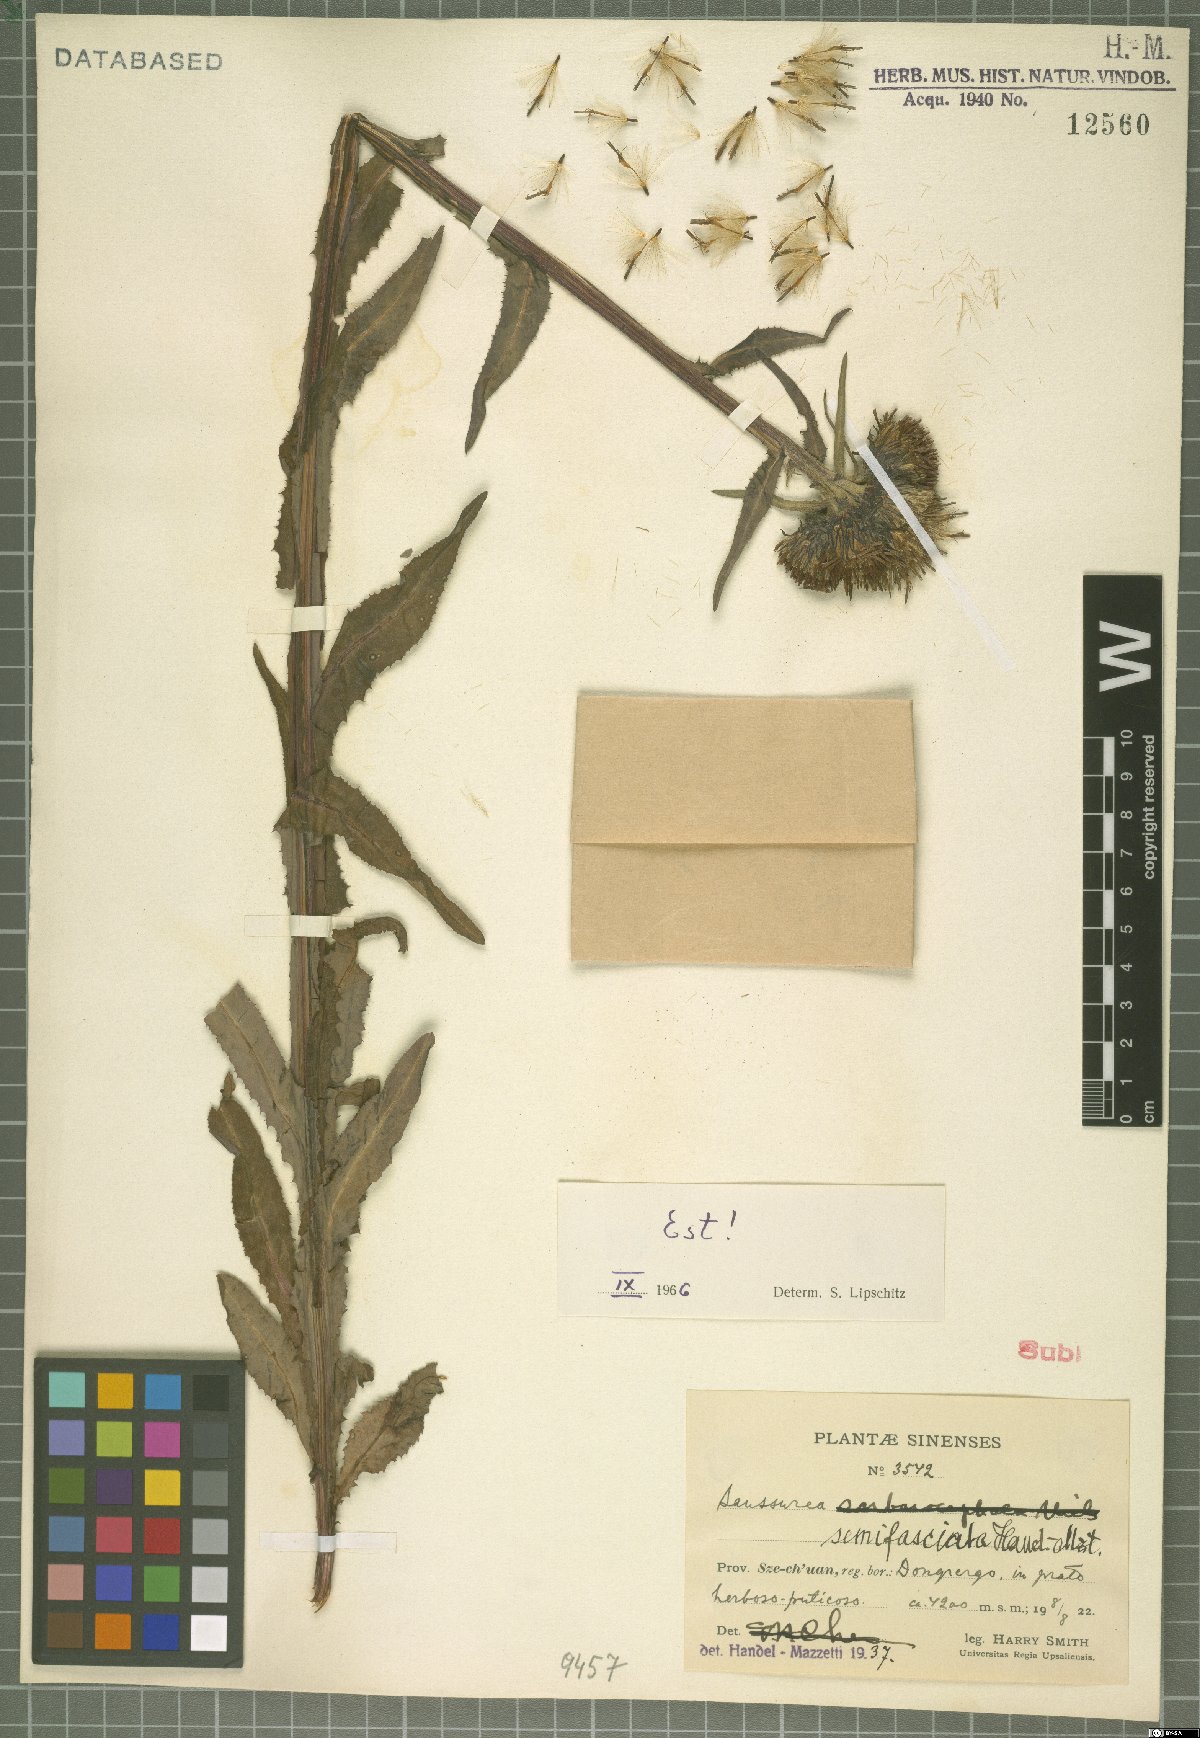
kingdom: Plantae
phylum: Tracheophyta
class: Magnoliopsida
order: Asterales
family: Asteraceae
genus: Saussurea
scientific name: Saussurea semifasciata
